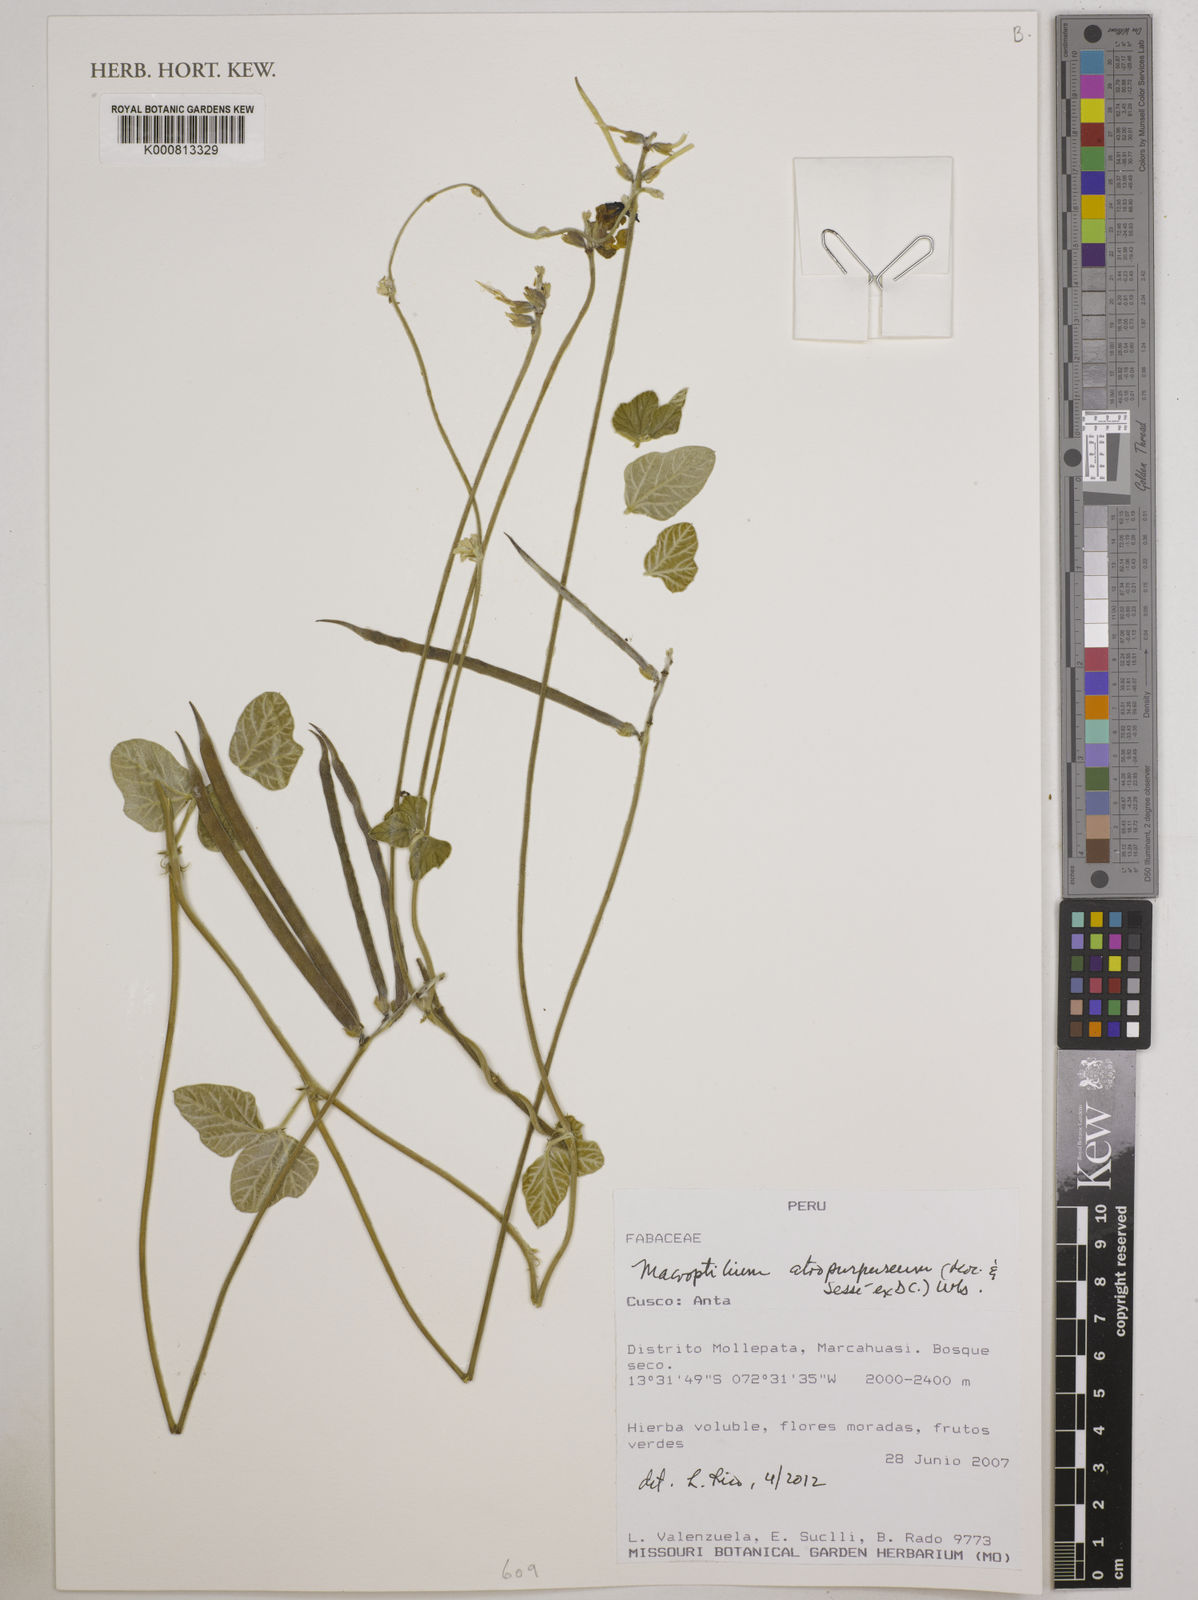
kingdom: Plantae
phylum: Tracheophyta
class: Magnoliopsida
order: Fabales
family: Fabaceae
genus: Macroptilium
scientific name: Macroptilium
